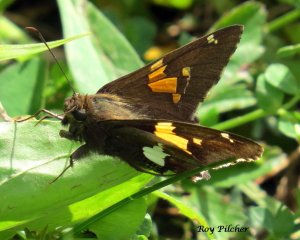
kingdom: Animalia
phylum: Arthropoda
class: Insecta
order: Lepidoptera
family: Hesperiidae
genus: Epargyreus
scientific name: Epargyreus clarus
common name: Silver-spotted Skipper
